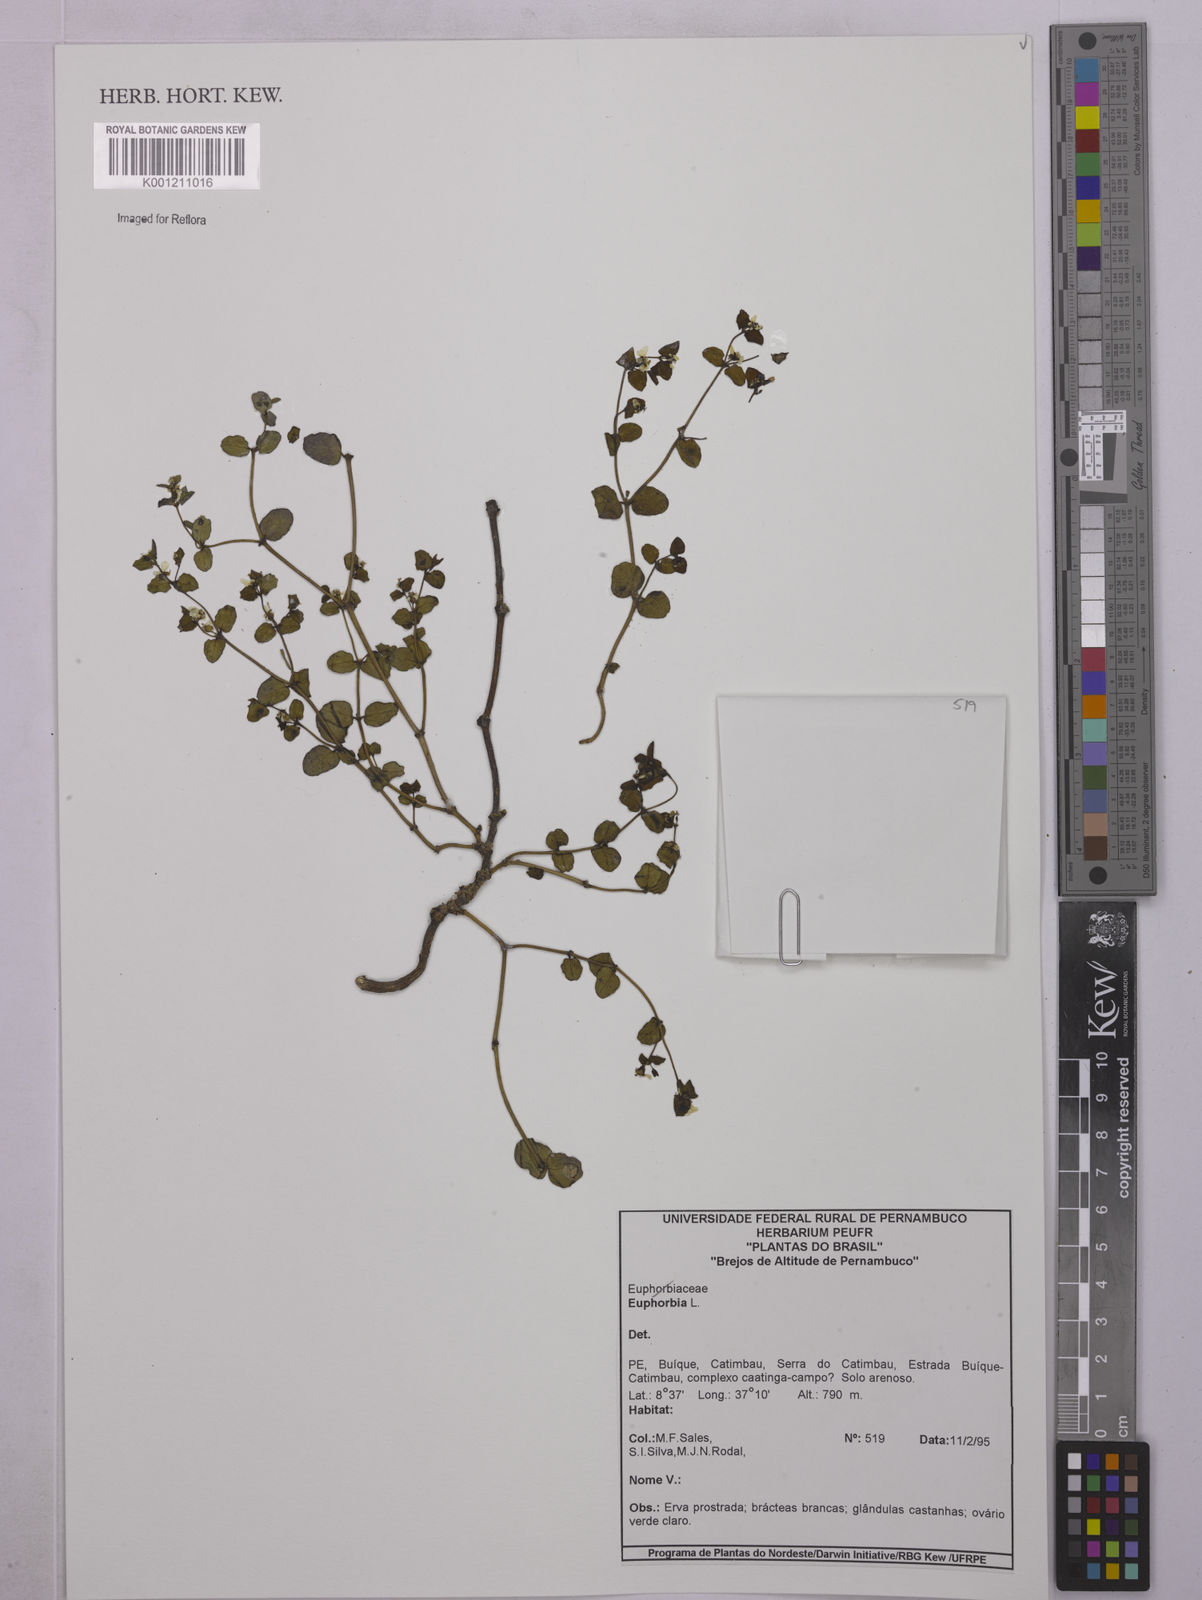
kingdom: Plantae
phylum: Tracheophyta
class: Magnoliopsida
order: Malpighiales
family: Euphorbiaceae
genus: Euphorbia
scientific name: Euphorbia
